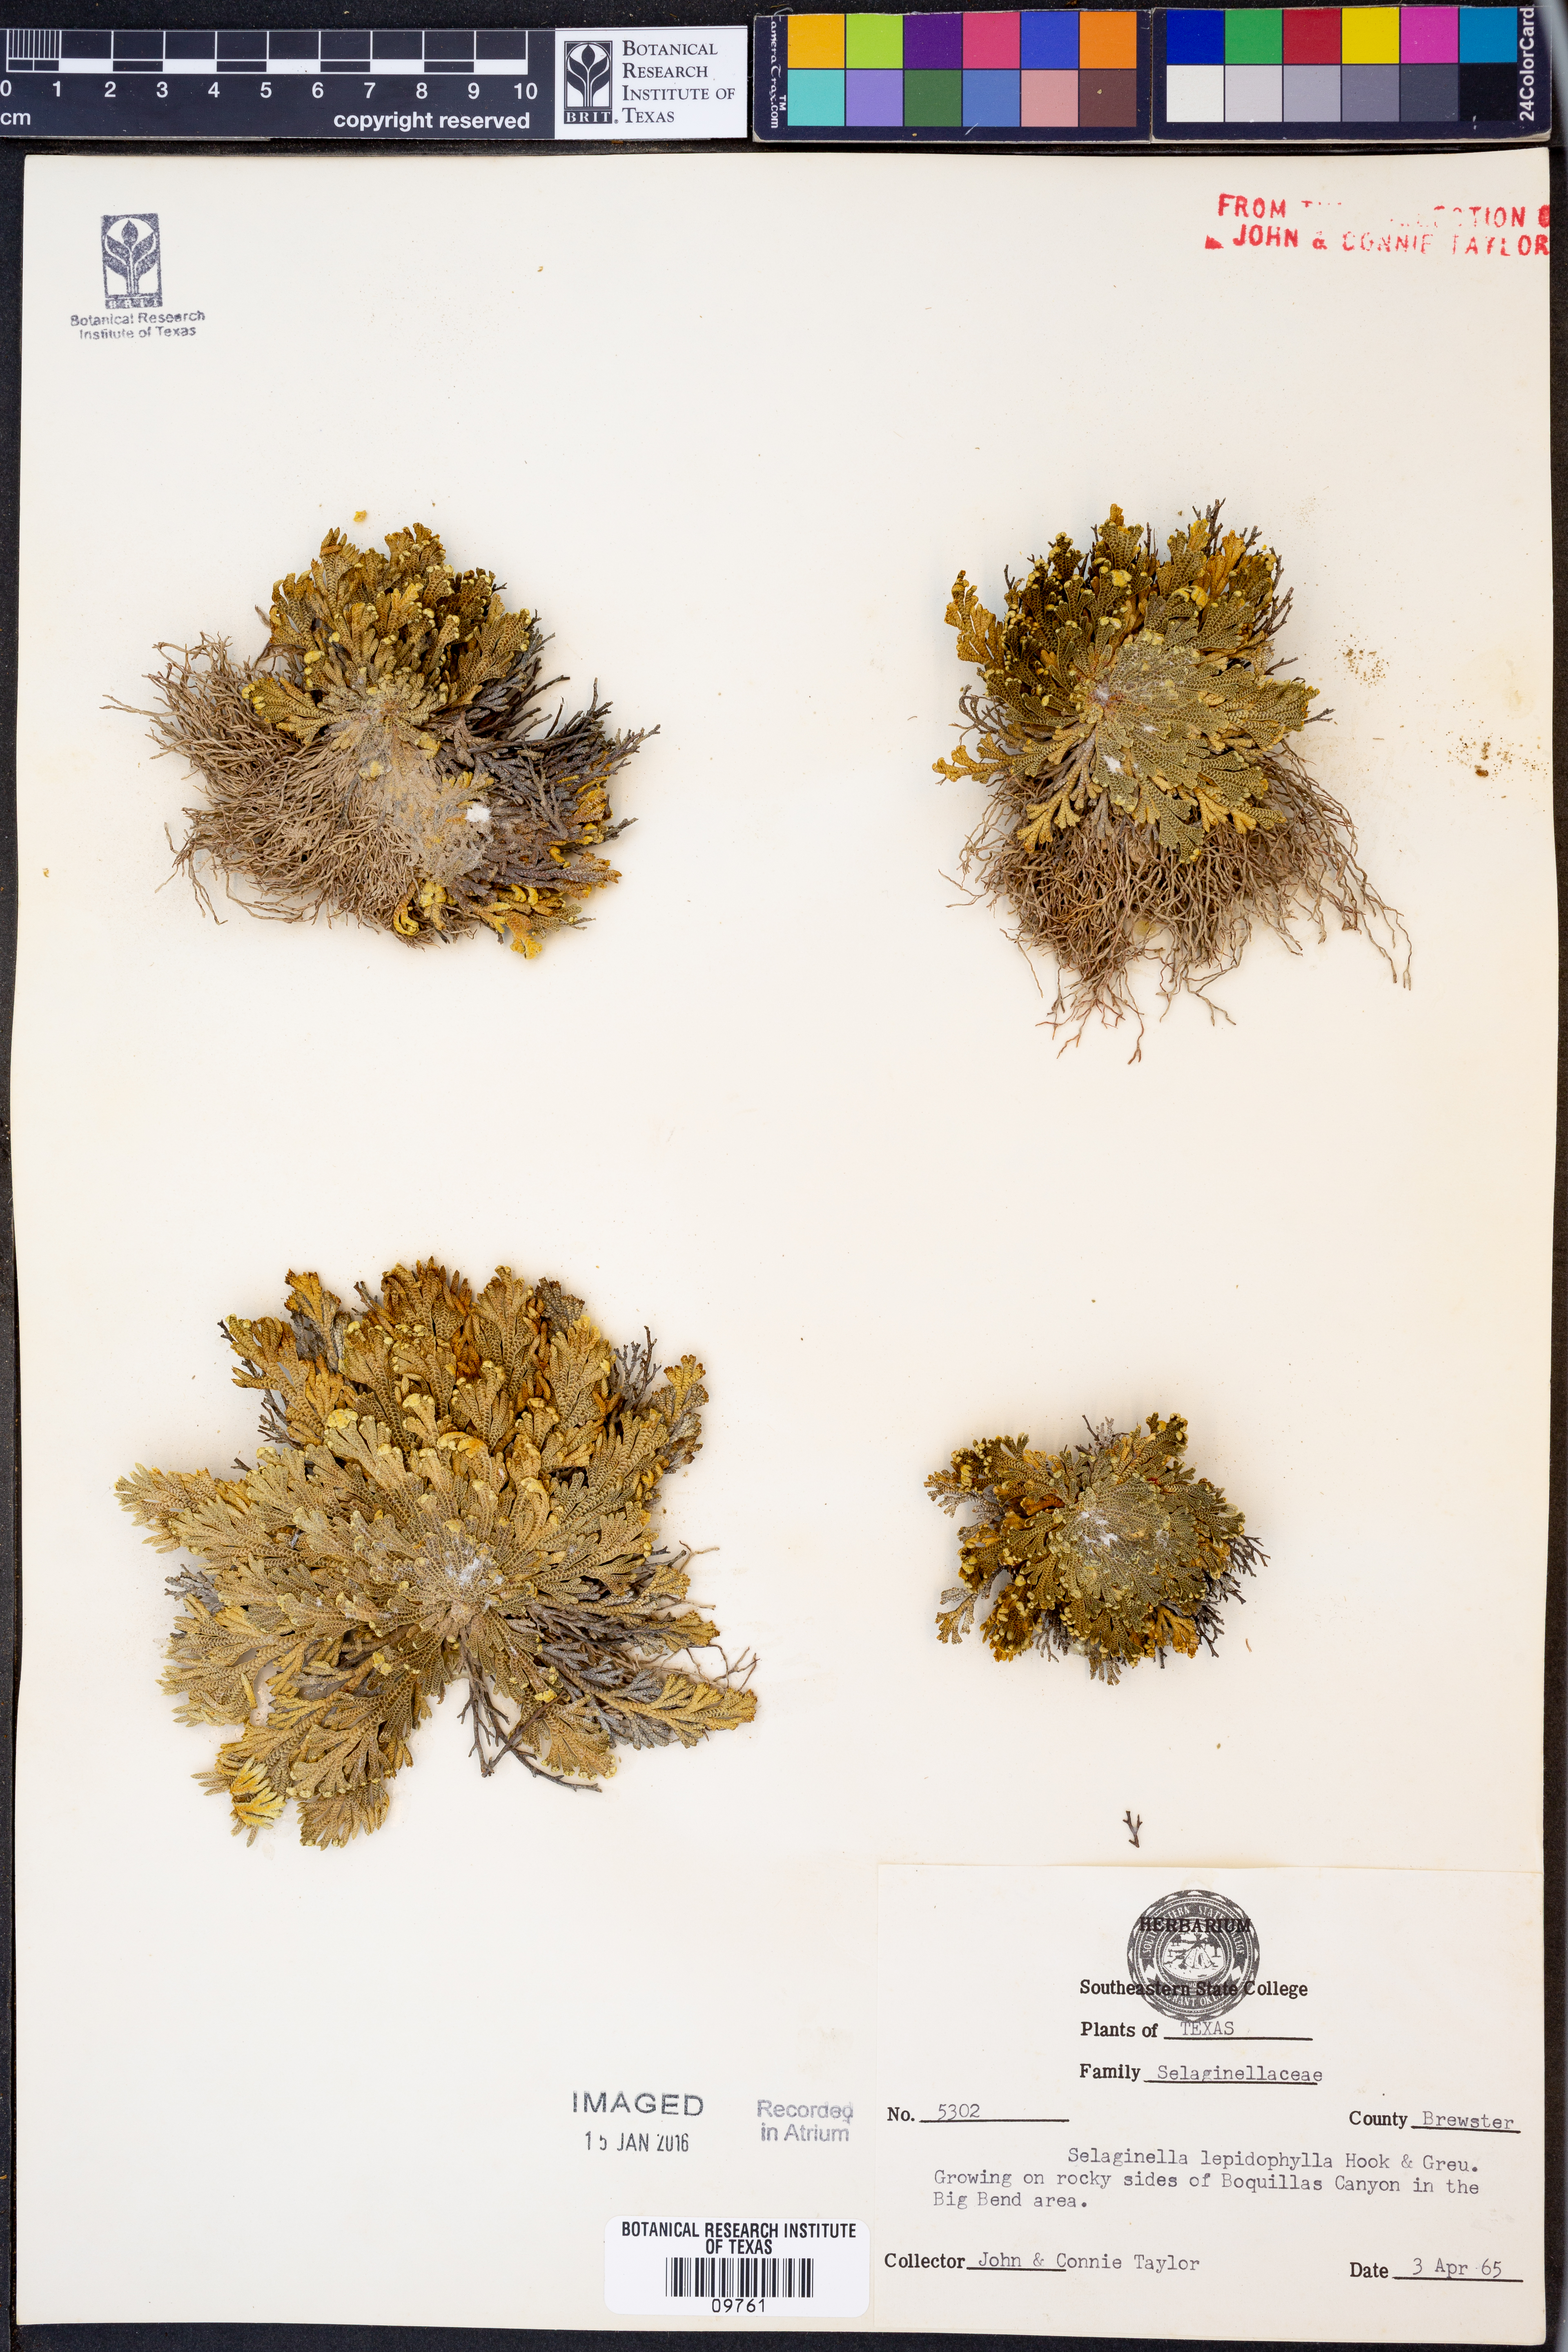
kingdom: Plantae
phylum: Tracheophyta
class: Lycopodiopsida
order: Selaginellales
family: Selaginellaceae
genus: Selaginella
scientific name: Selaginella lepidophylla
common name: Rose-of-jericho
